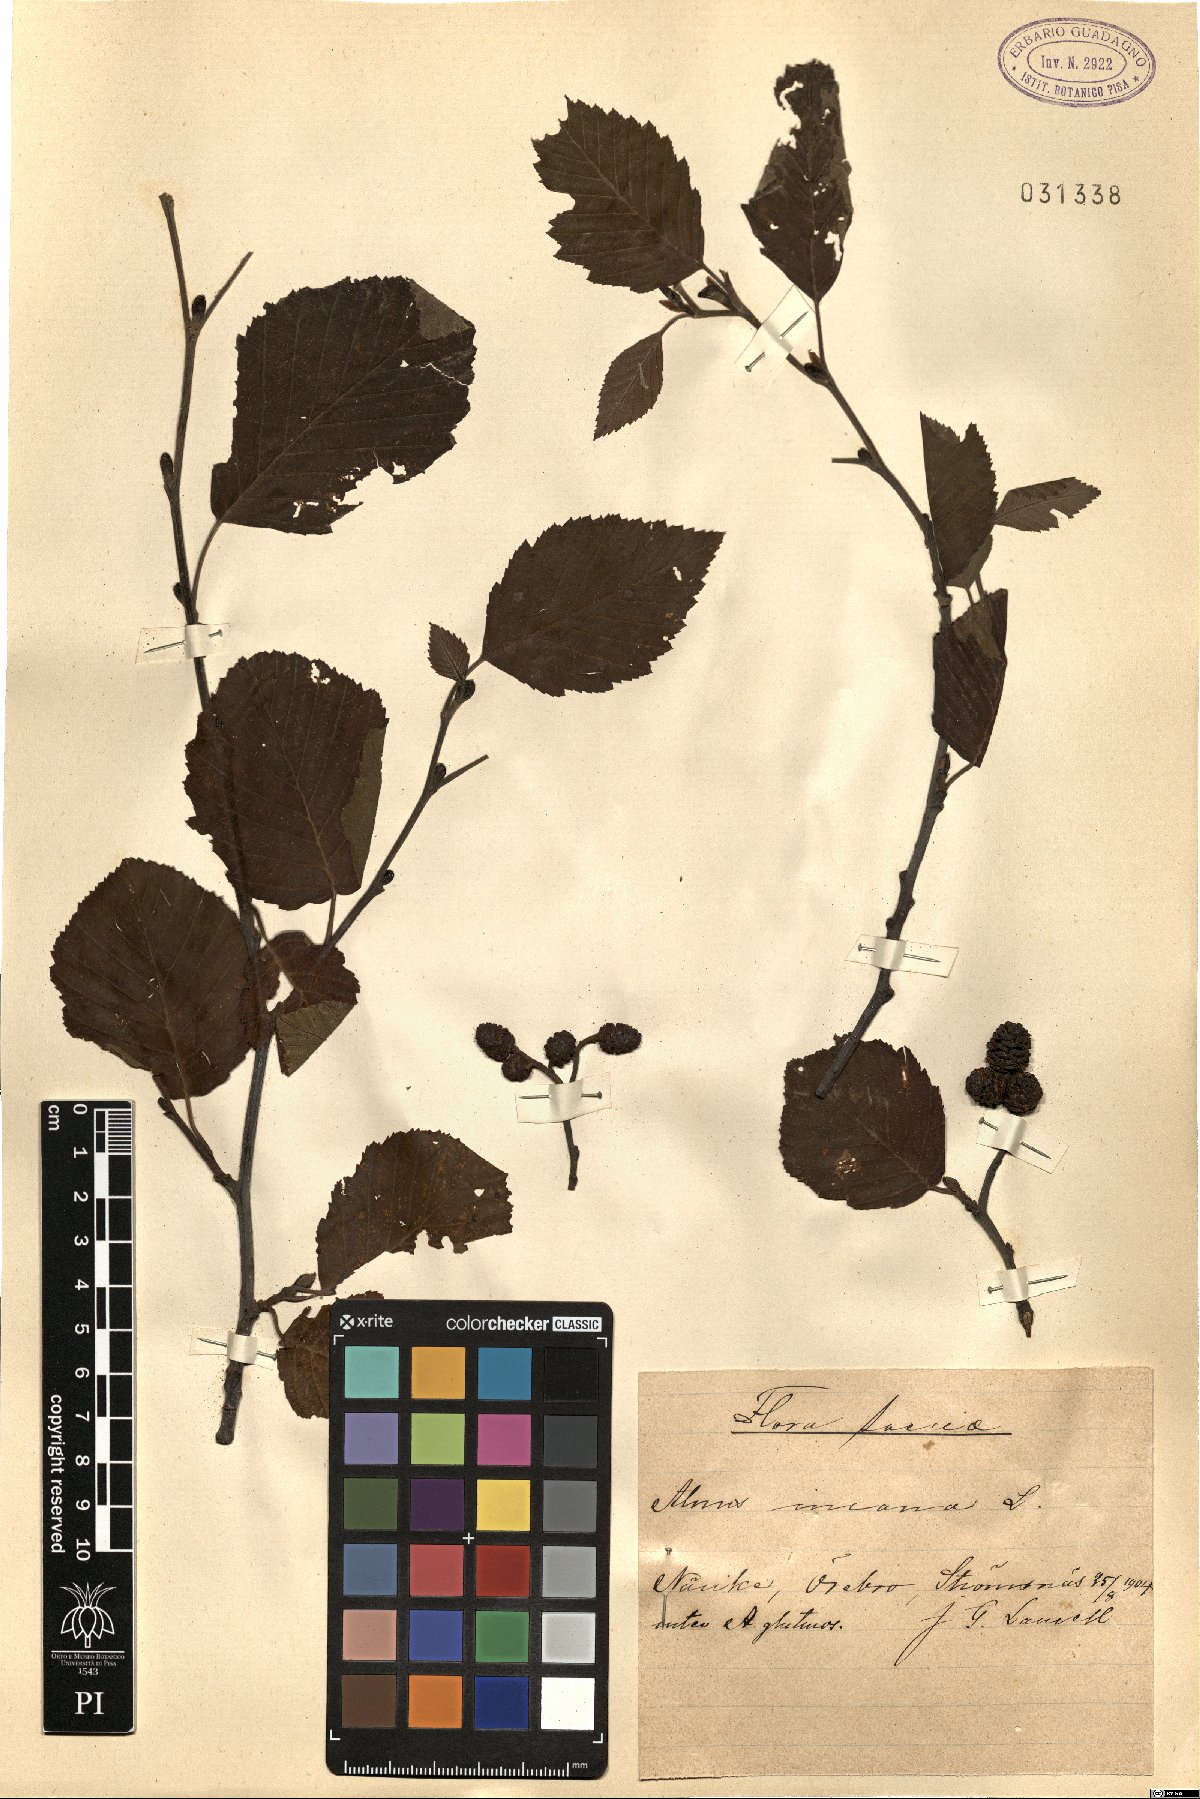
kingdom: Plantae
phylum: Tracheophyta
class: Magnoliopsida
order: Fagales
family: Betulaceae
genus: Alnus
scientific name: Alnus incana
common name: Grey alder
